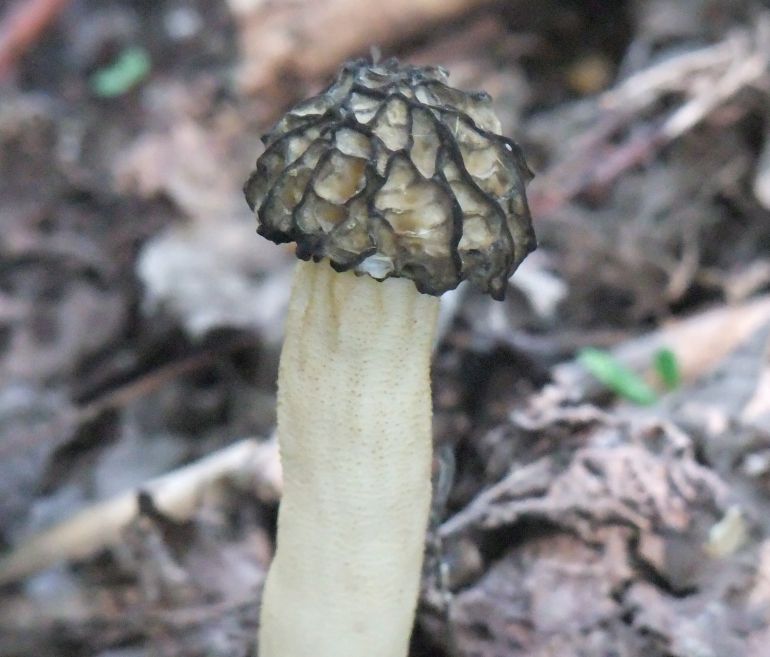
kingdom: Fungi
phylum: Ascomycota
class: Pezizomycetes
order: Pezizales
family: Morchellaceae
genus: Morchella
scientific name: Morchella semilibera
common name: hætte-morkel
